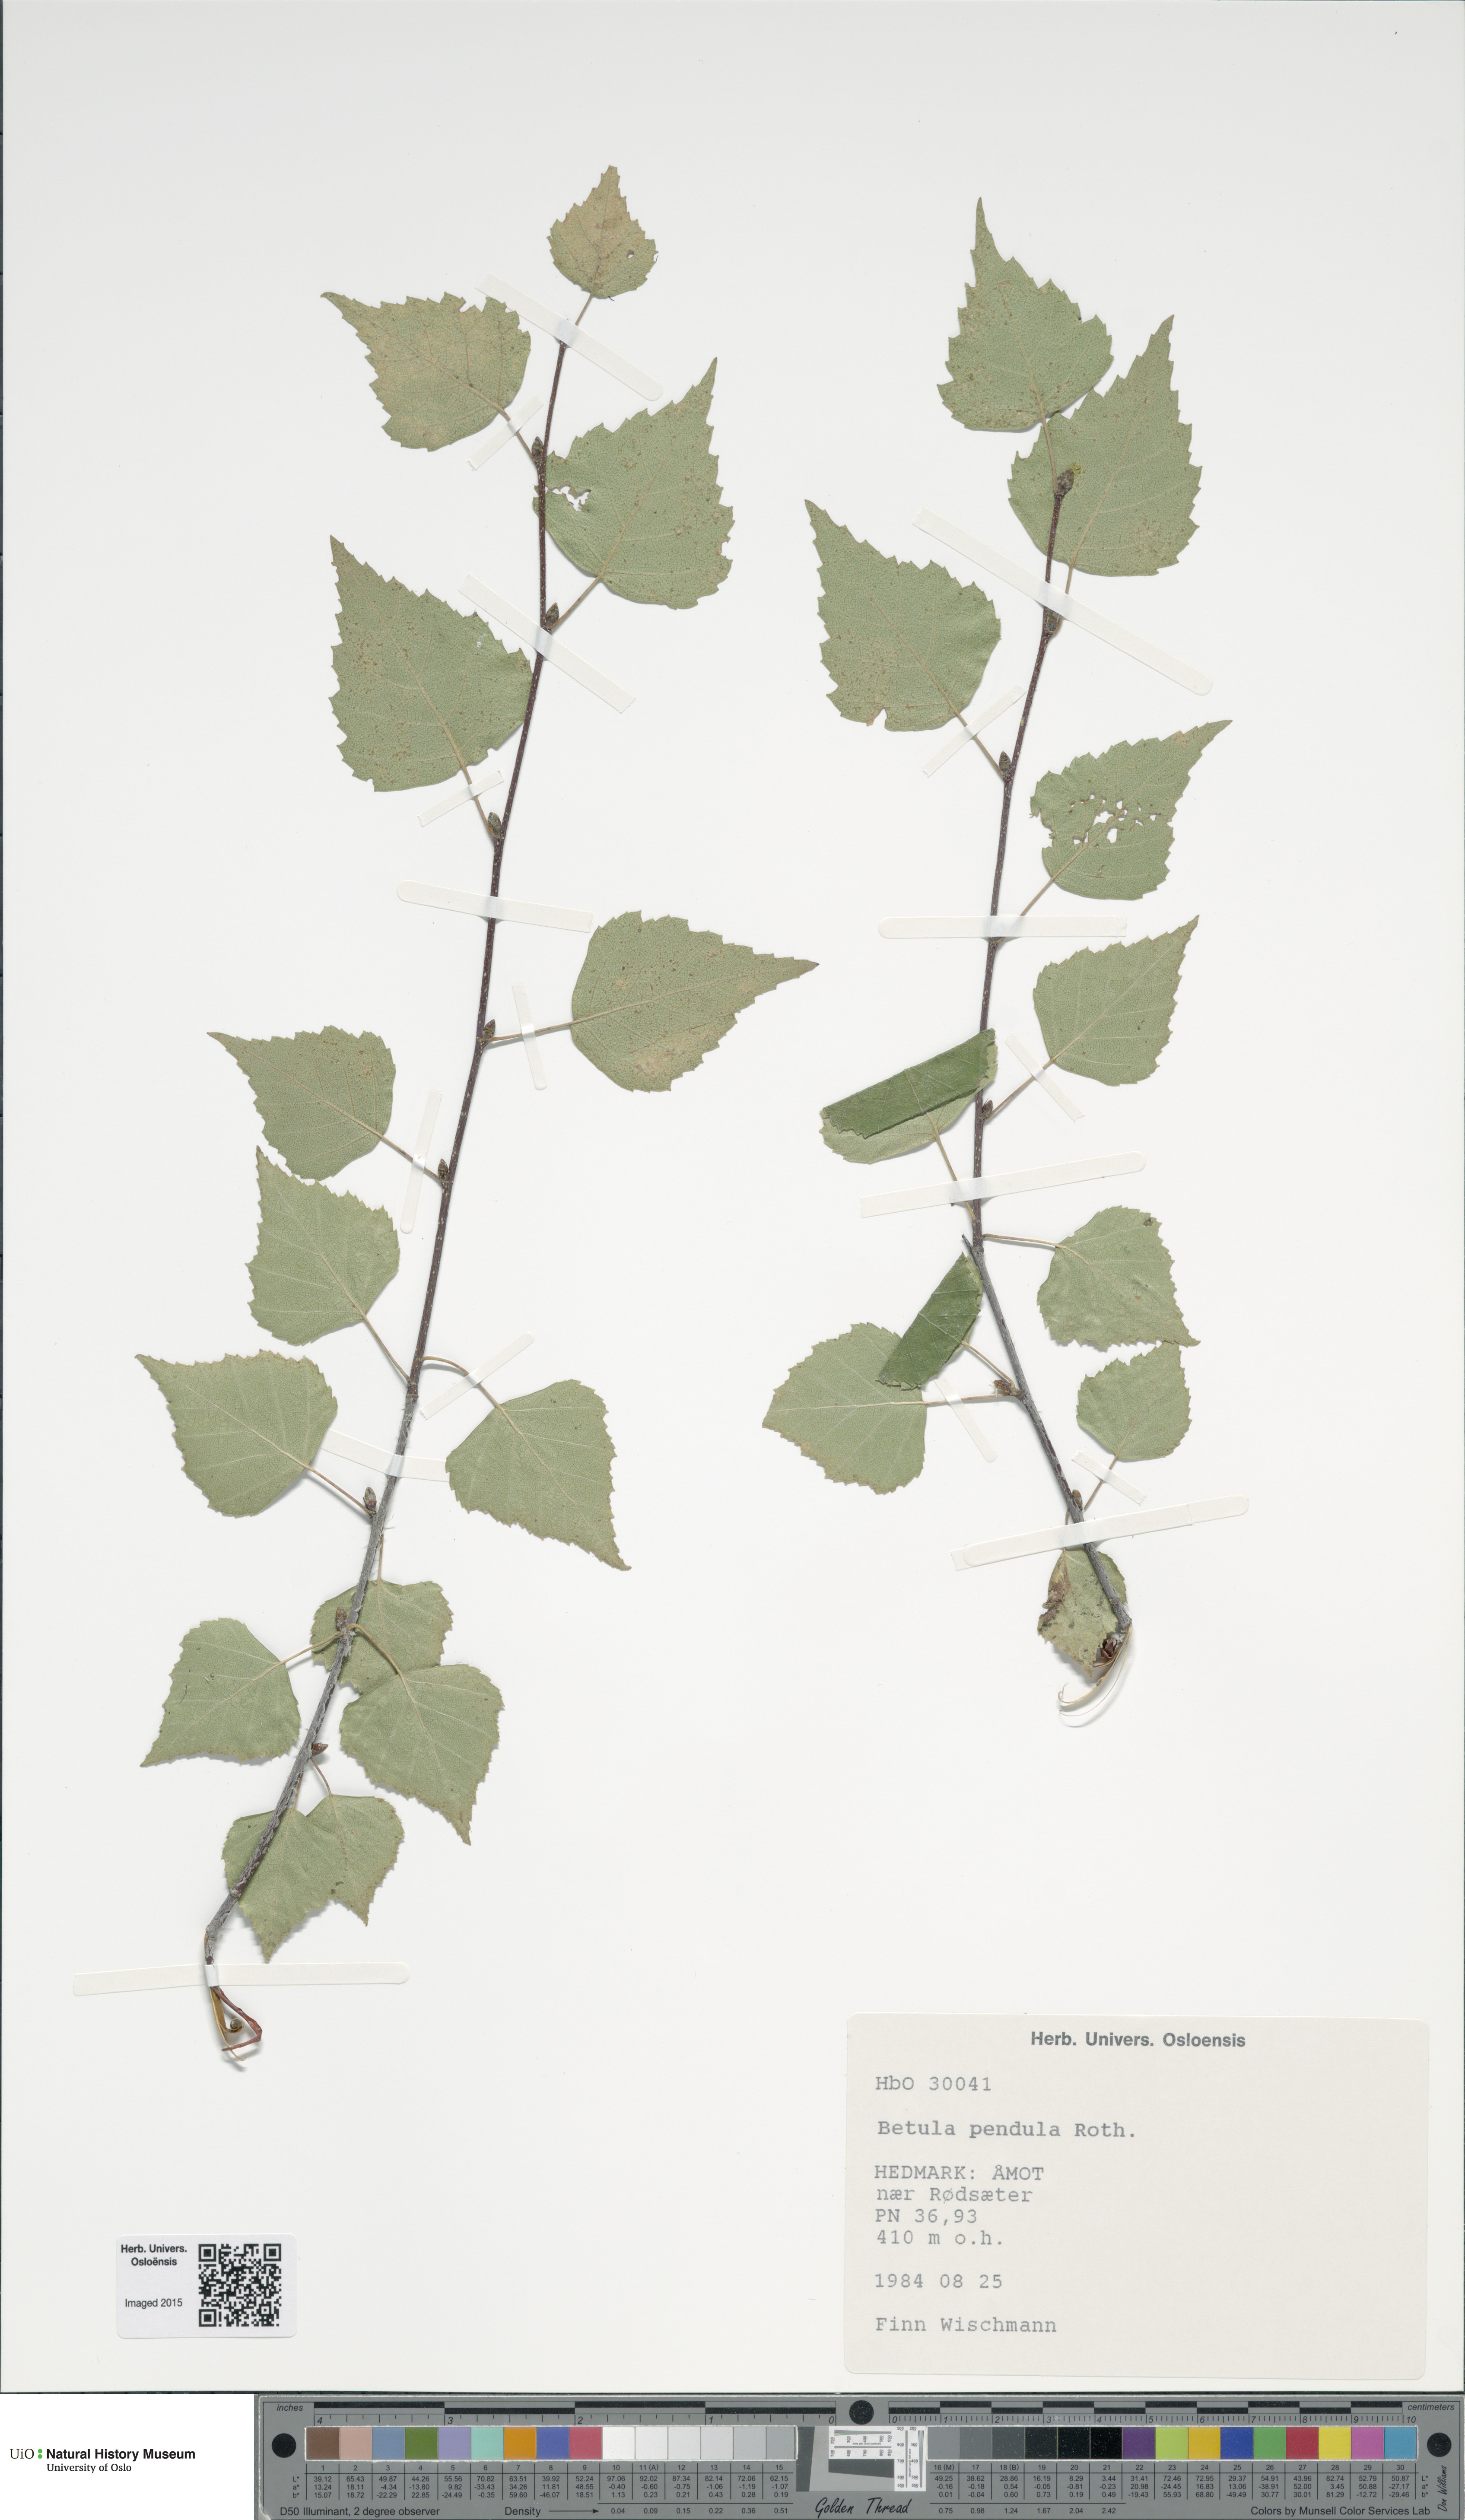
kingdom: Plantae
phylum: Tracheophyta
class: Magnoliopsida
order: Fagales
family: Betulaceae
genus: Betula
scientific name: Betula pendula
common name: Silver birch
